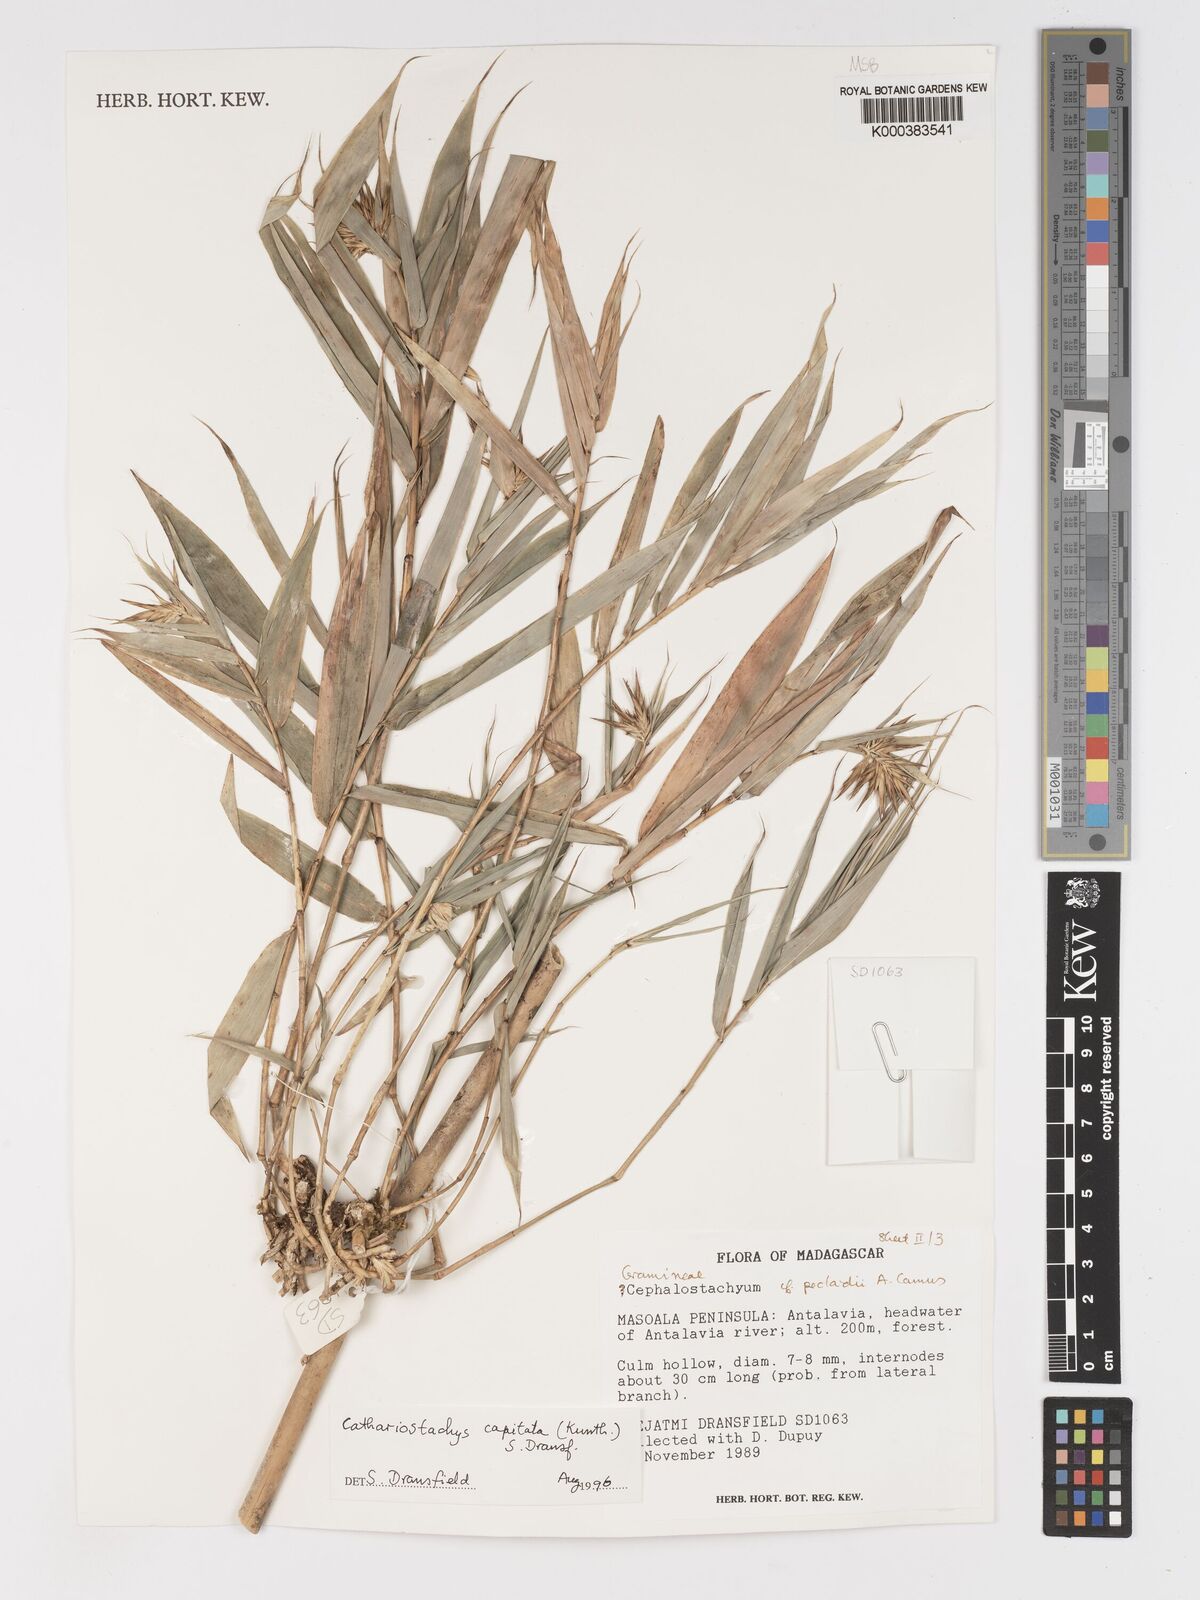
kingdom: Plantae
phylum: Tracheophyta
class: Liliopsida
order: Poales
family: Poaceae
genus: Cathariostachys
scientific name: Cathariostachys capitata
